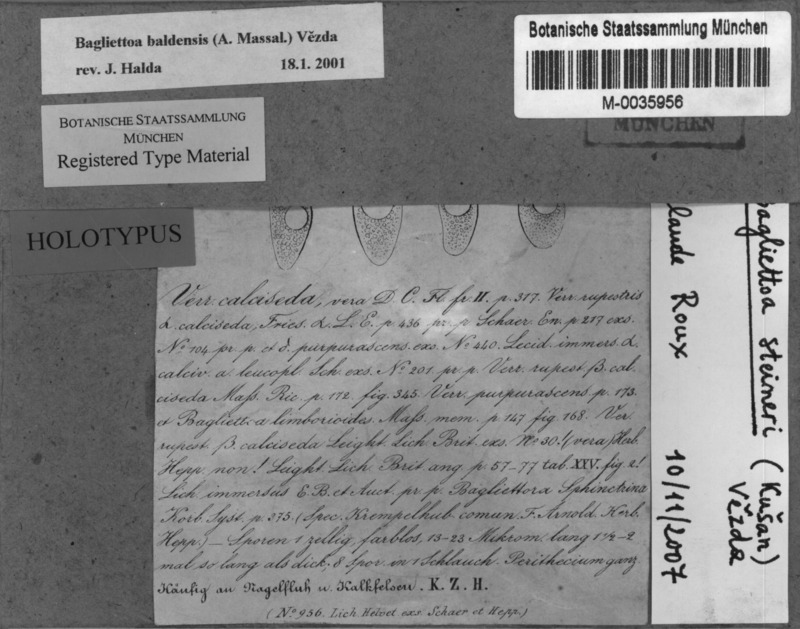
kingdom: Fungi
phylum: Ascomycota
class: Eurotiomycetes
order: Verrucariales
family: Verrucariaceae
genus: Bagliettoa
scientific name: Bagliettoa steineri
